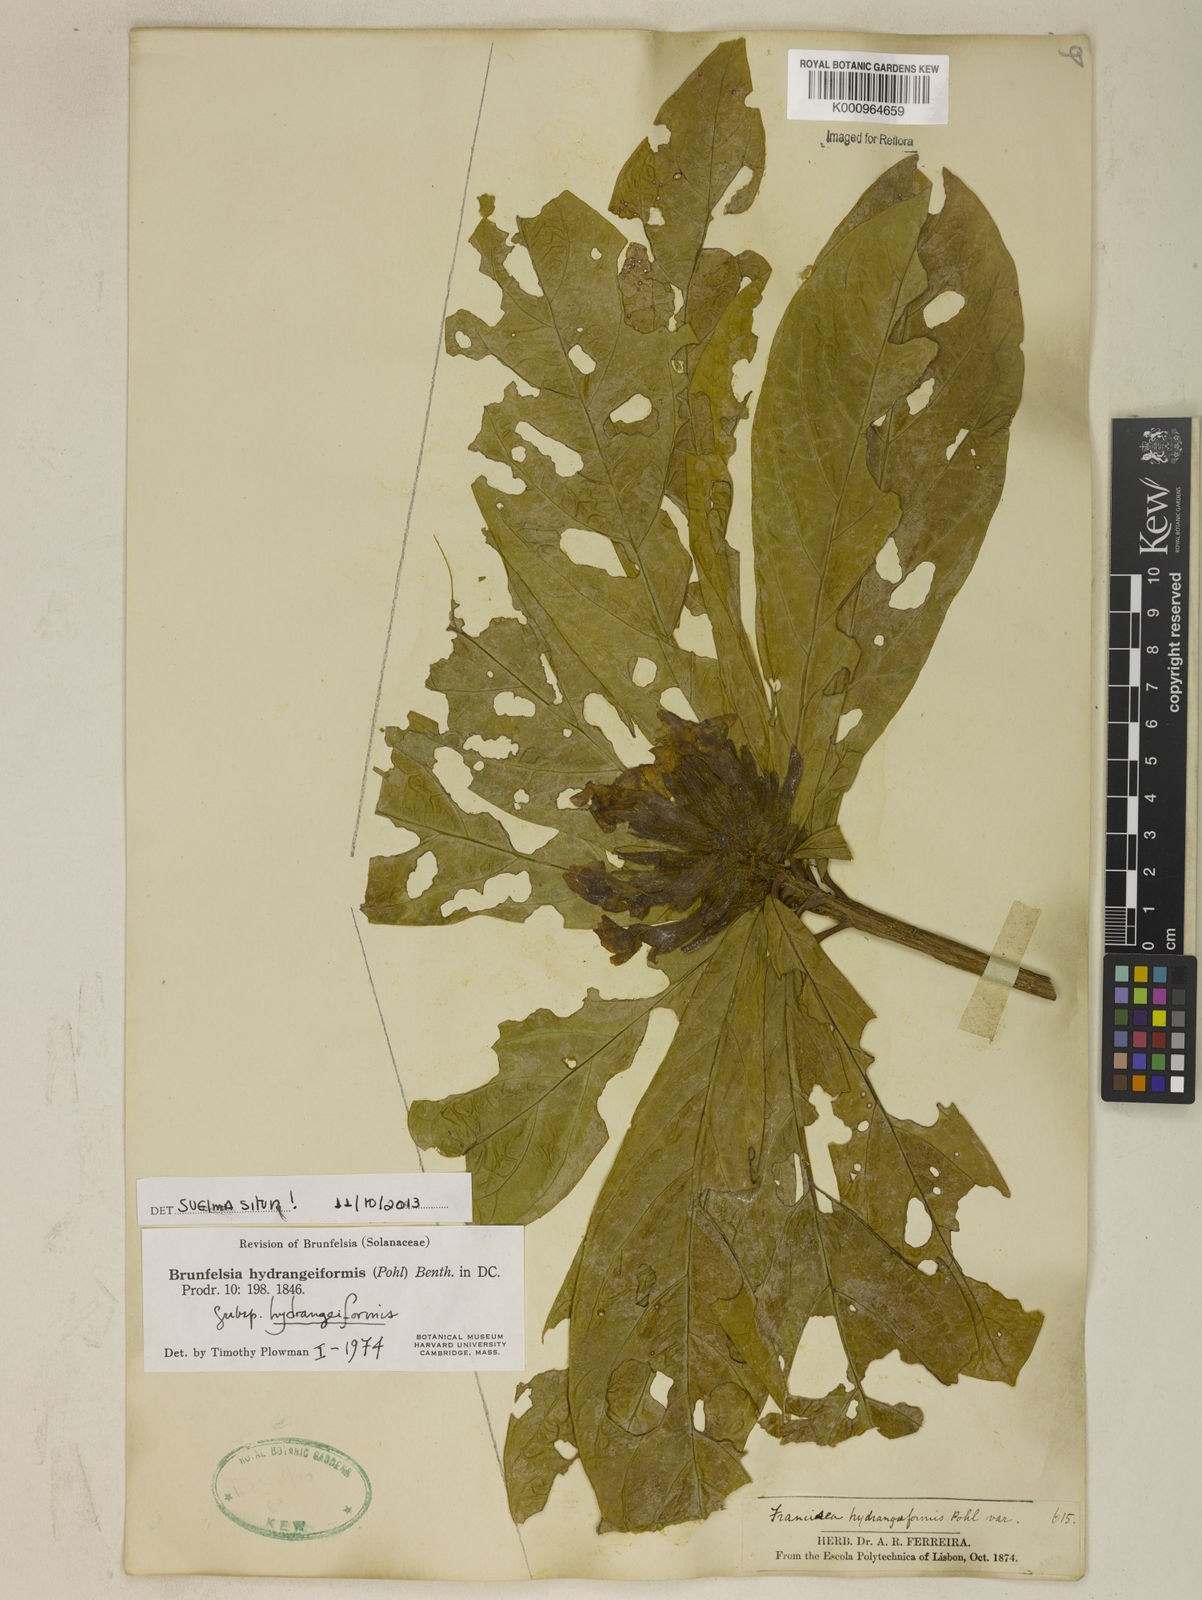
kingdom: Plantae
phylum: Tracheophyta
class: Magnoliopsida
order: Solanales
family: Solanaceae
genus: Brunfelsia
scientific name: Brunfelsia hydrangeiformis
